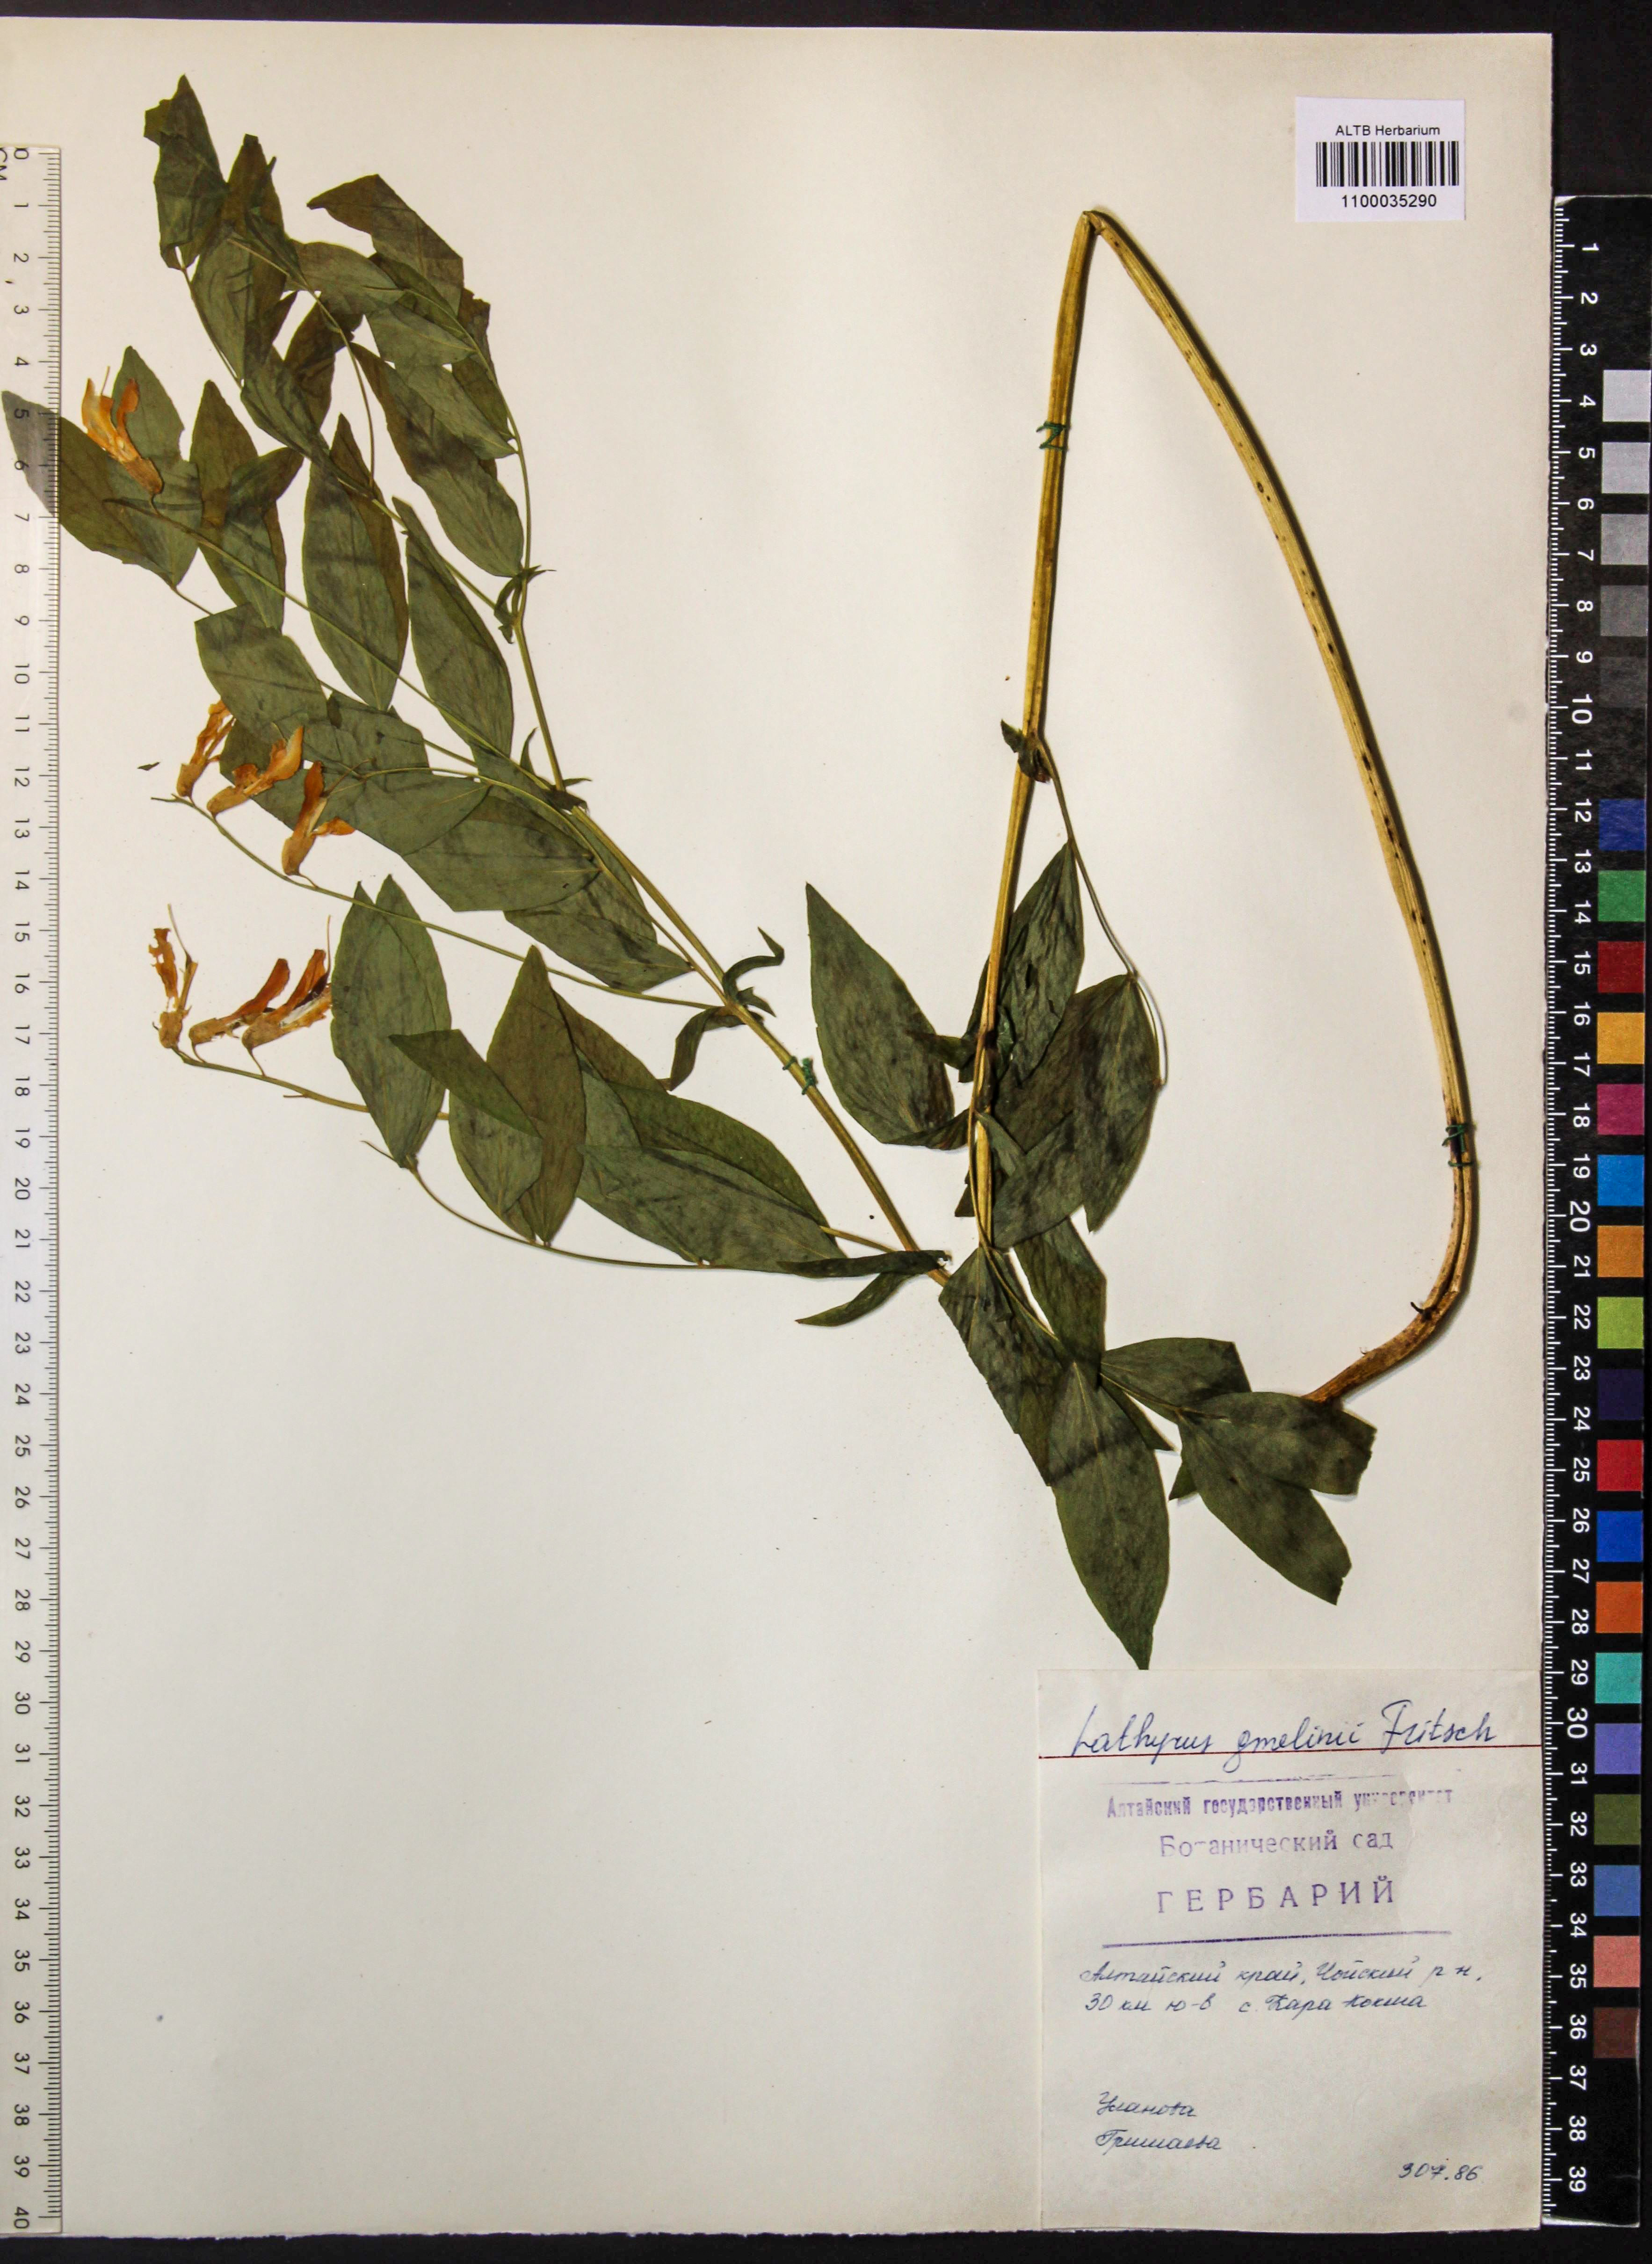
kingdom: Plantae
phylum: Tracheophyta
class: Magnoliopsida
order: Fabales
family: Fabaceae
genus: Lathyrus
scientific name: Lathyrus gmelinii
